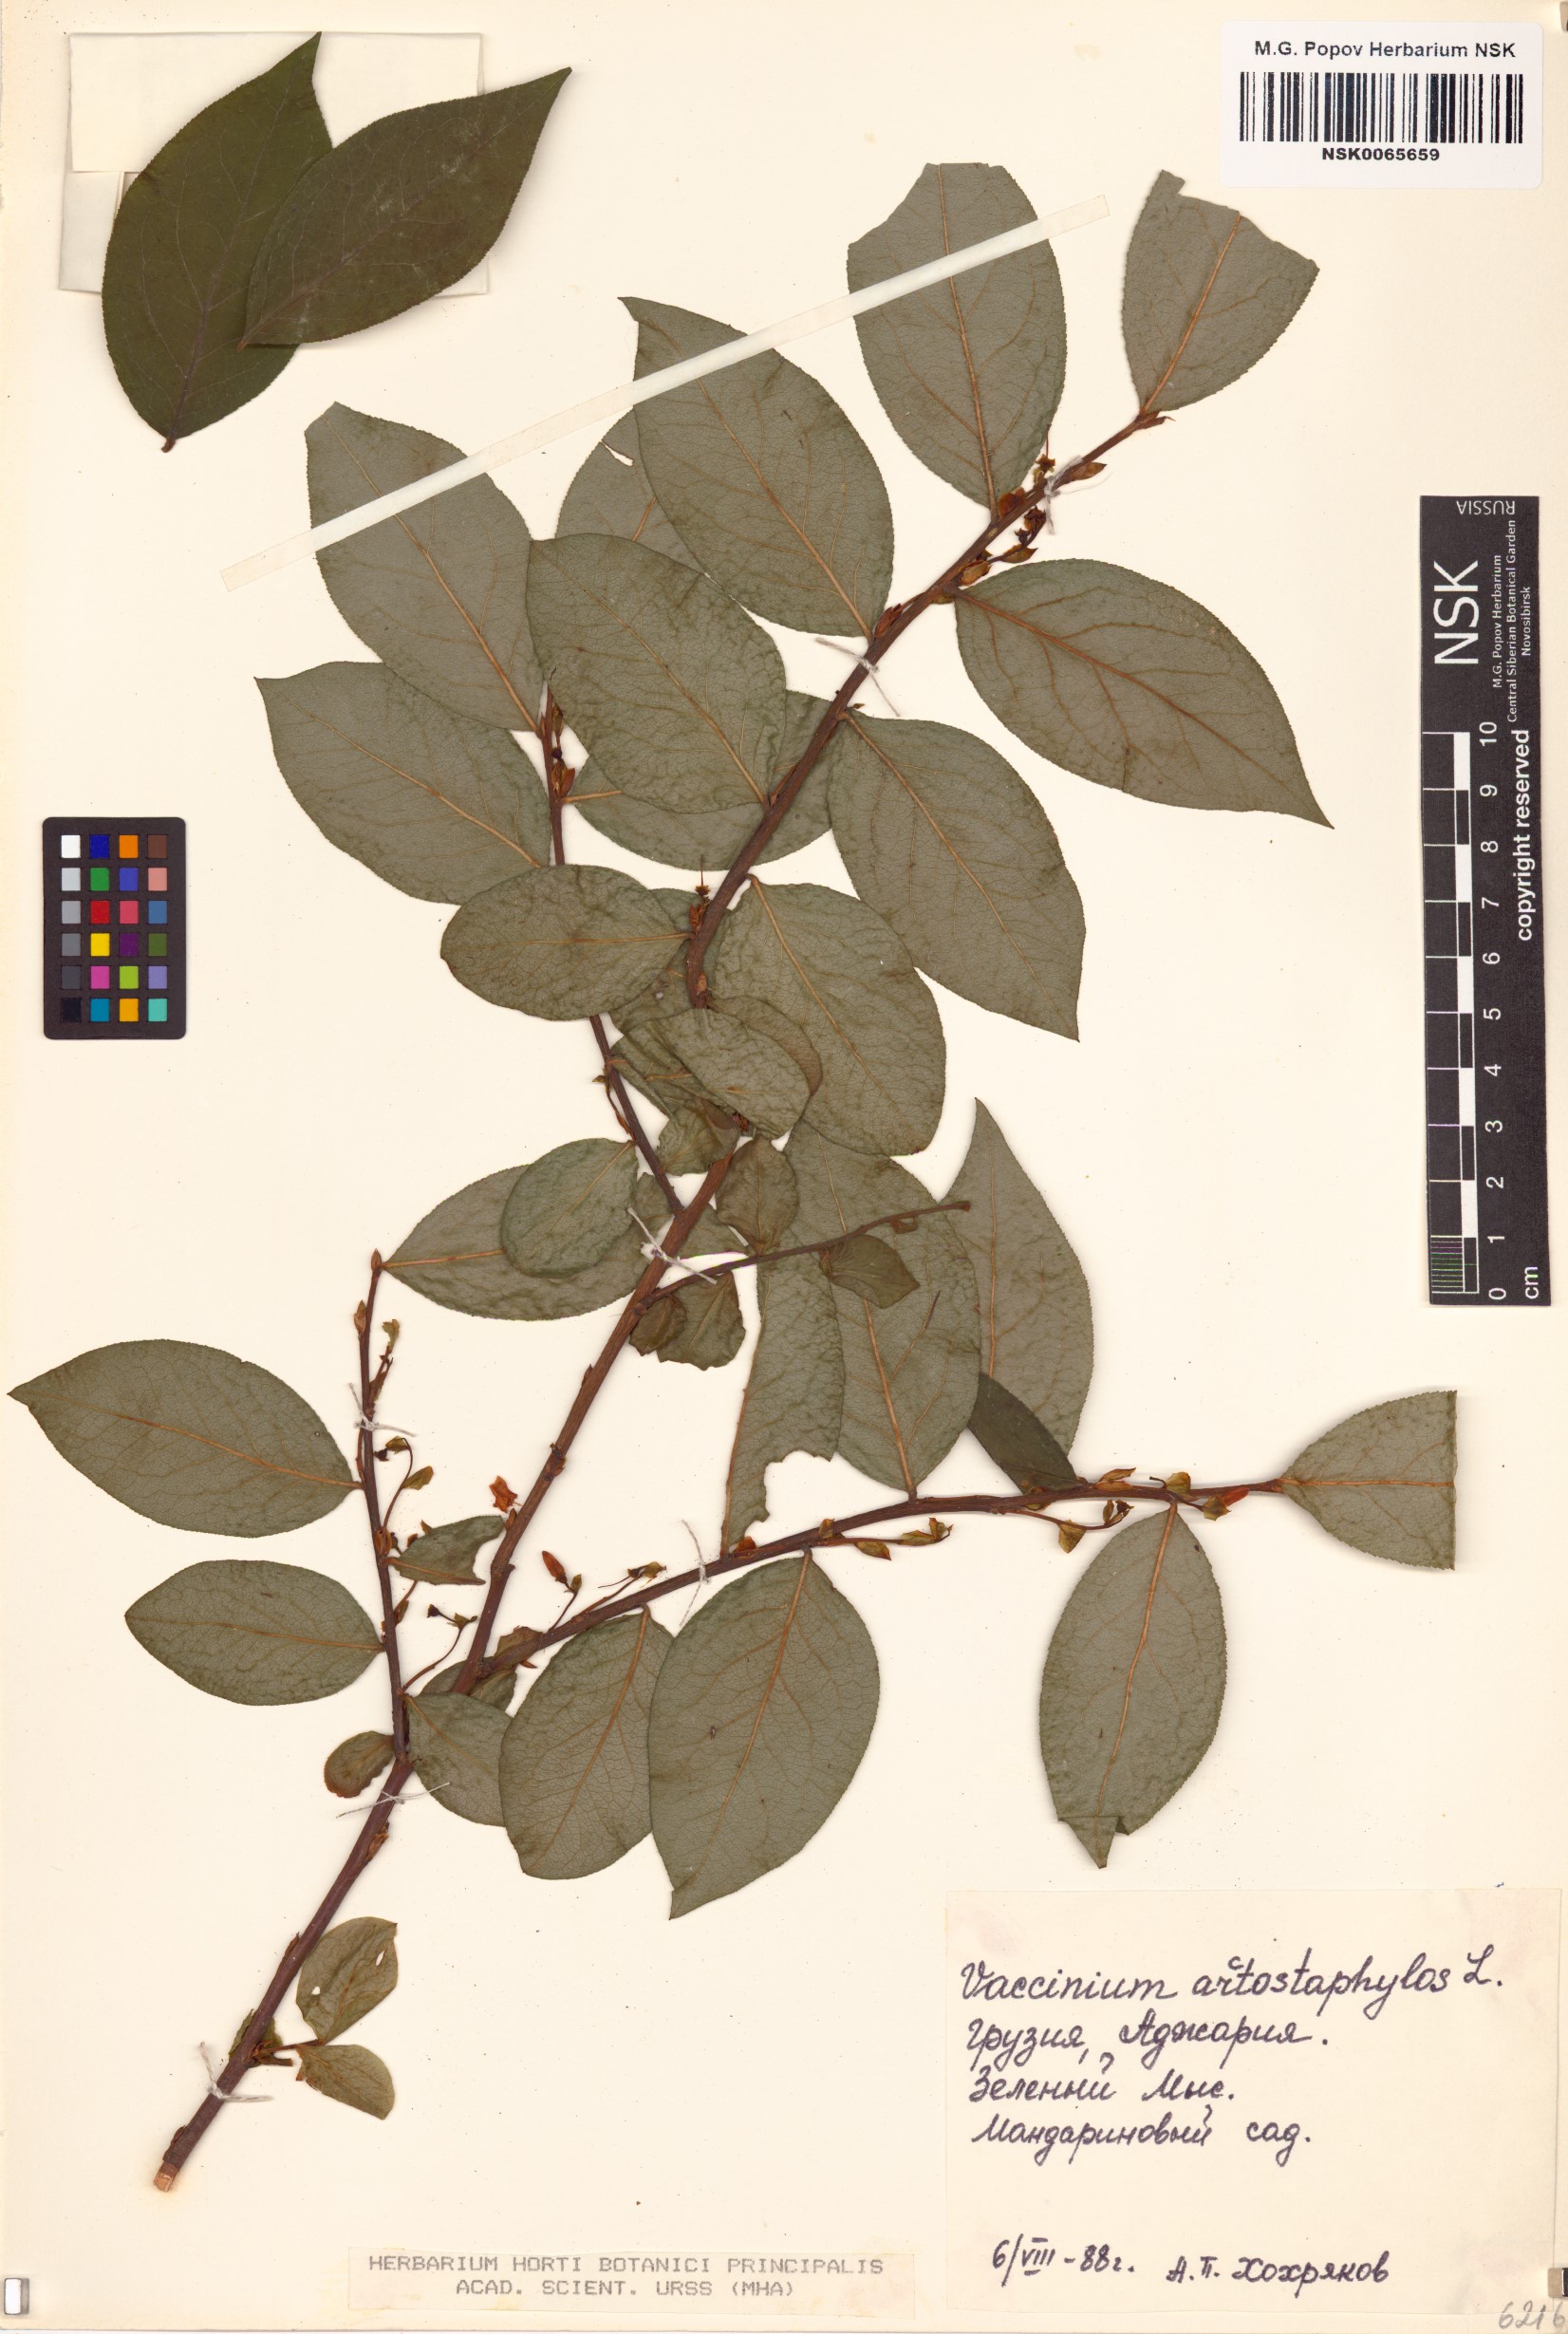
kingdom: Plantae
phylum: Tracheophyta
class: Magnoliopsida
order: Ericales
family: Ericaceae
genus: Vaccinium
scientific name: Vaccinium arctostaphylos
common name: Caucasian whortleberry
